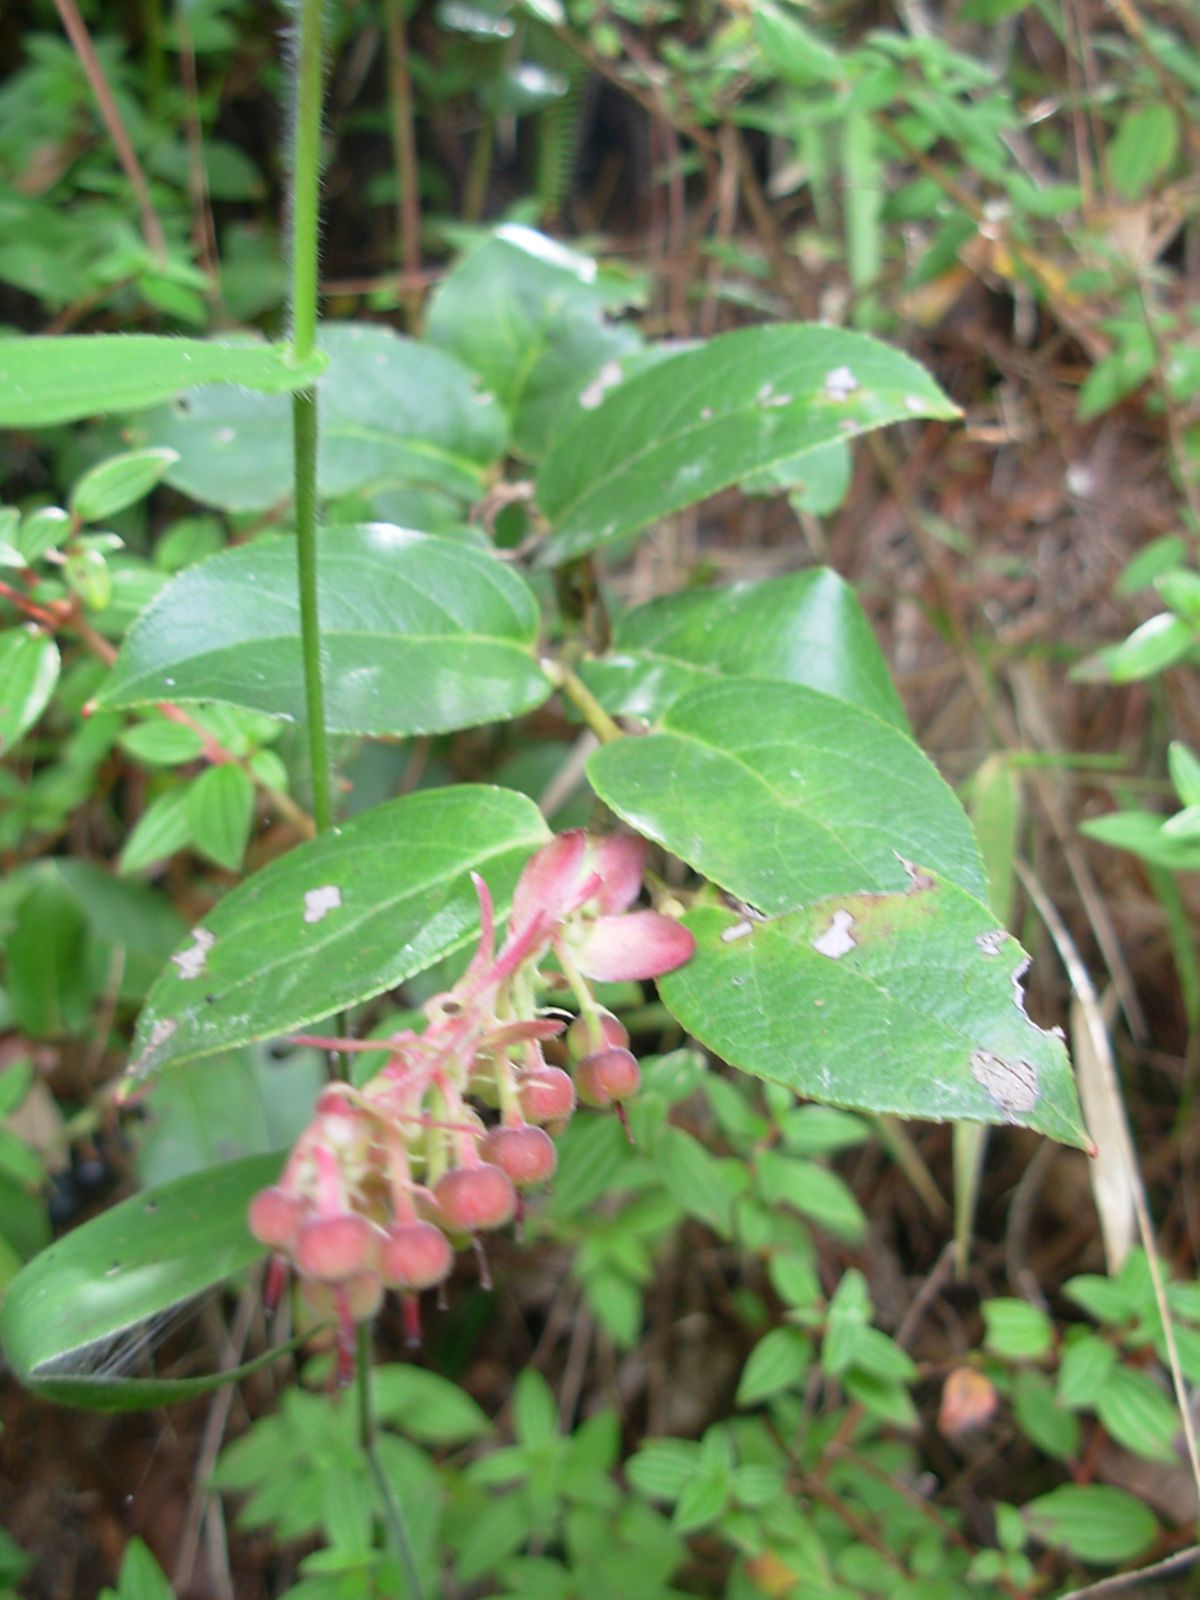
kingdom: Plantae
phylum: Tracheophyta
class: Magnoliopsida
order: Ericales
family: Ericaceae
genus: Gaultheria
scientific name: Gaultheria erecta
